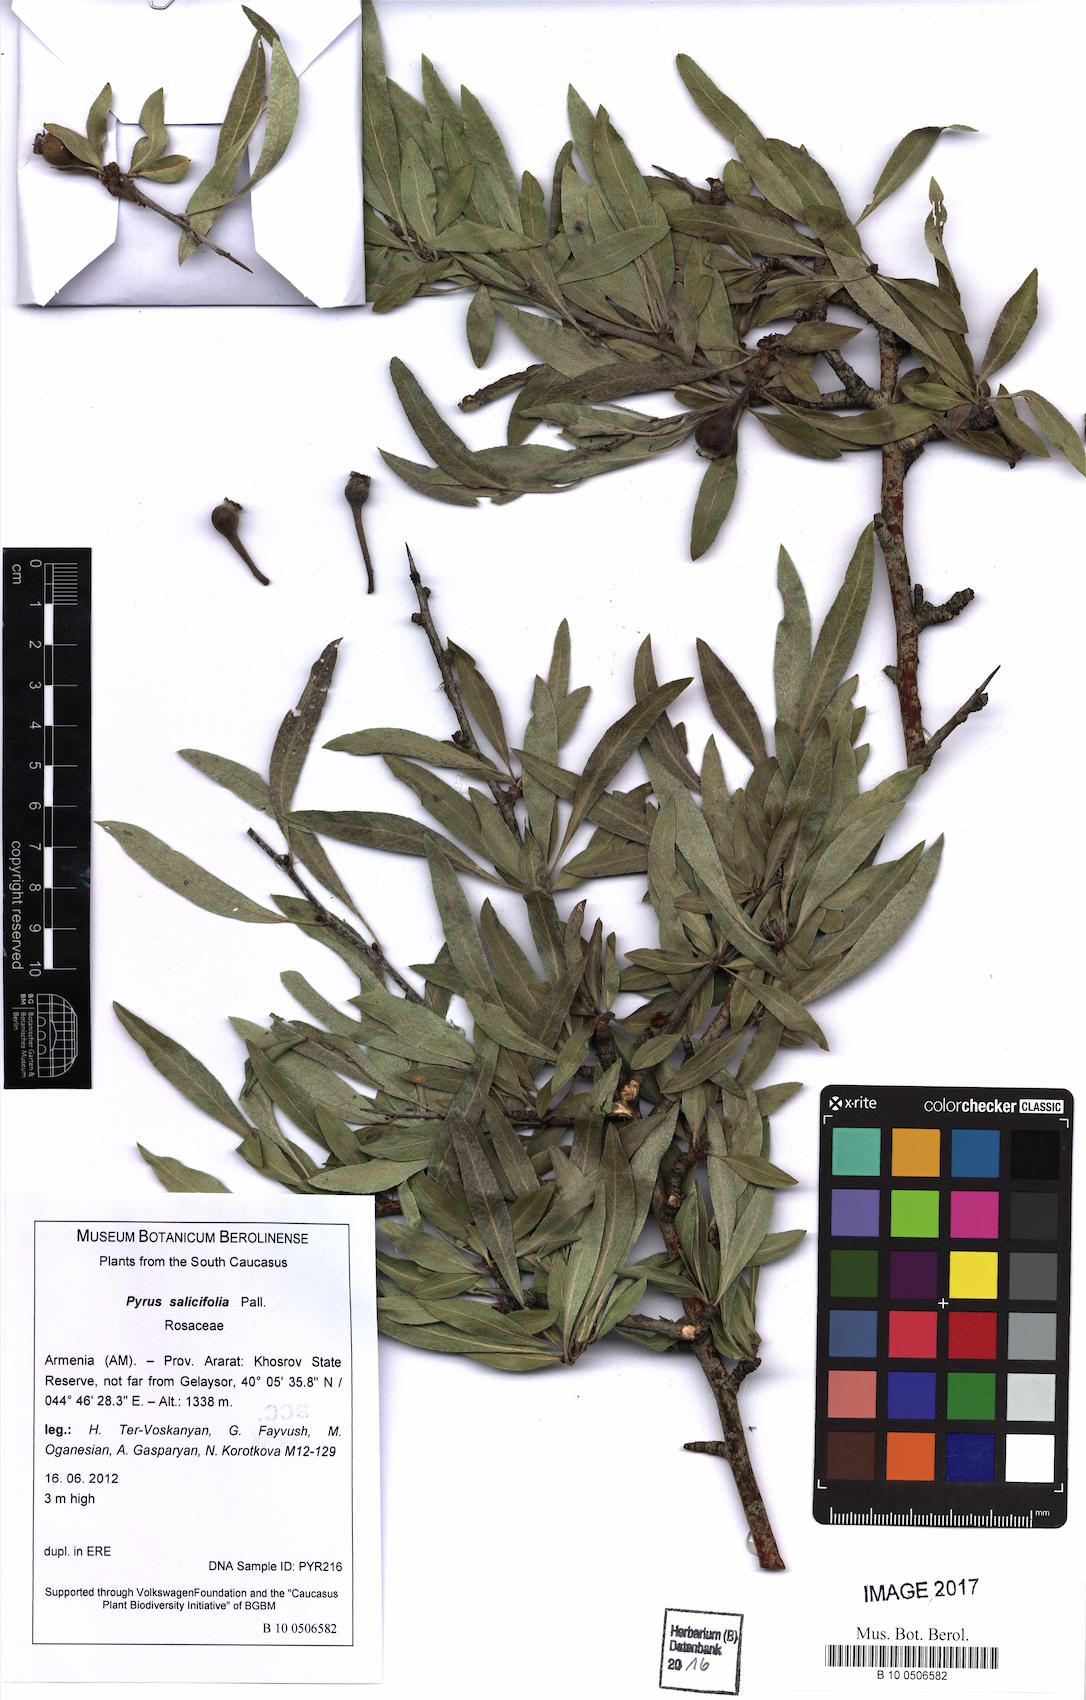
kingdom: Plantae
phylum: Tracheophyta
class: Magnoliopsida
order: Rosales
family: Rosaceae
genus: Pyrus
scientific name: Pyrus zangezura
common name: Zangezurian pear
